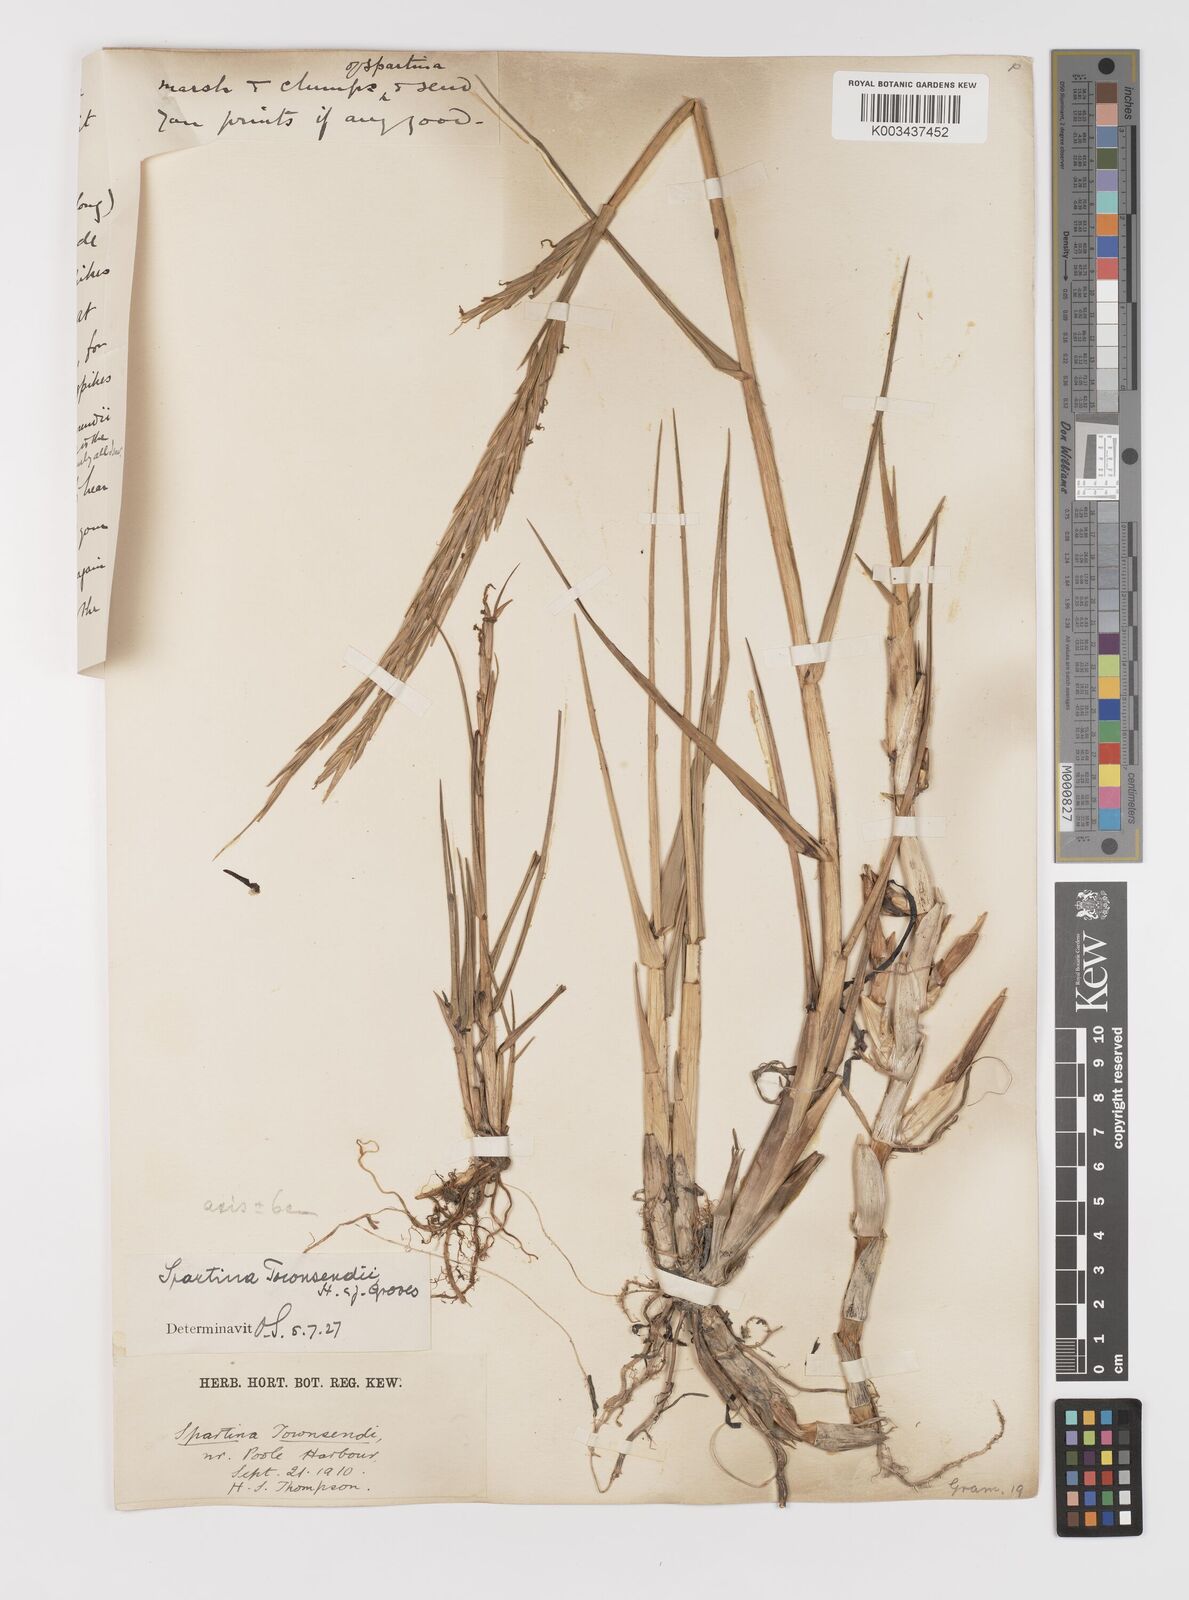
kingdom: Plantae
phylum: Tracheophyta
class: Liliopsida
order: Poales
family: Poaceae
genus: Sporobolus
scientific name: Sporobolus anglicus
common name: English cordgrass
